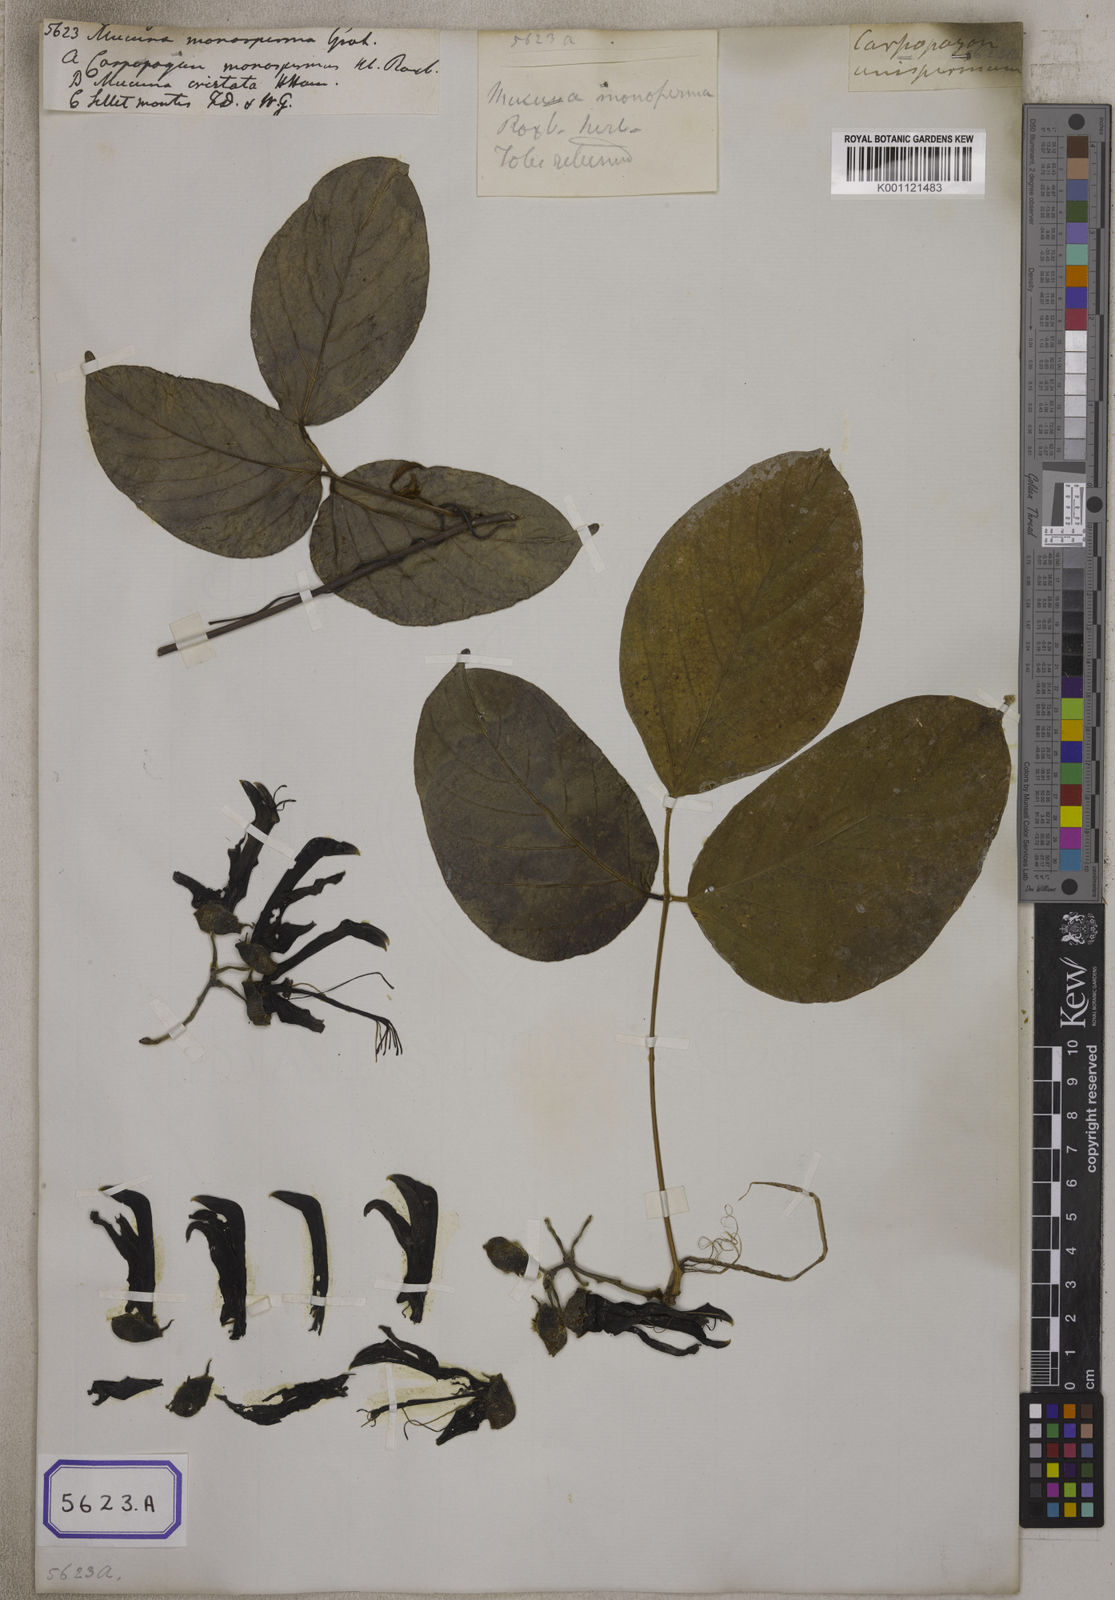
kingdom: Plantae
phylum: Tracheophyta
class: Magnoliopsida
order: Fabales
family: Fabaceae
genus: Mucuna
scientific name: Mucuna
